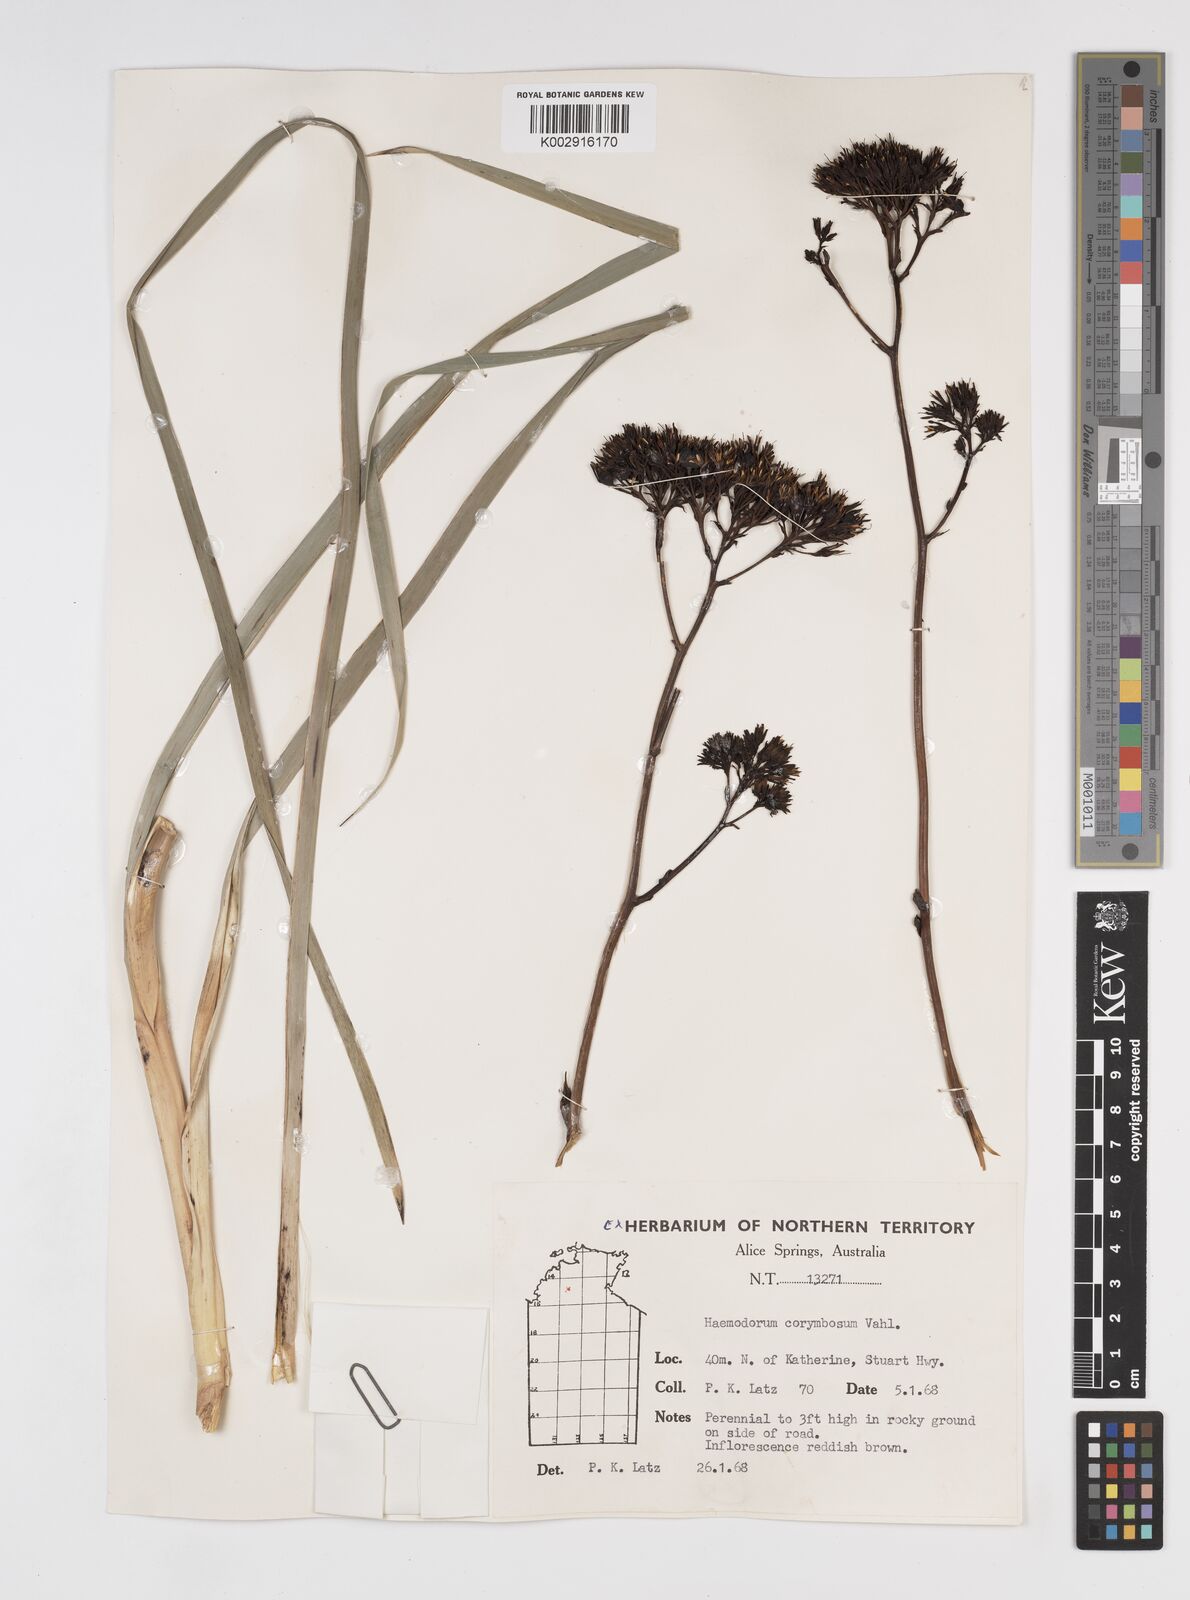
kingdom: Plantae
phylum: Tracheophyta
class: Liliopsida
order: Commelinales
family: Haemodoraceae
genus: Haemodorum
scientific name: Haemodorum corymbosum
